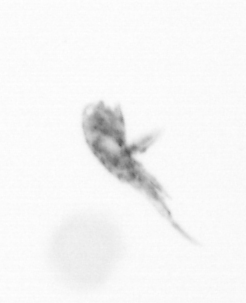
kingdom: Animalia
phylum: Arthropoda
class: Copepoda
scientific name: Copepoda
